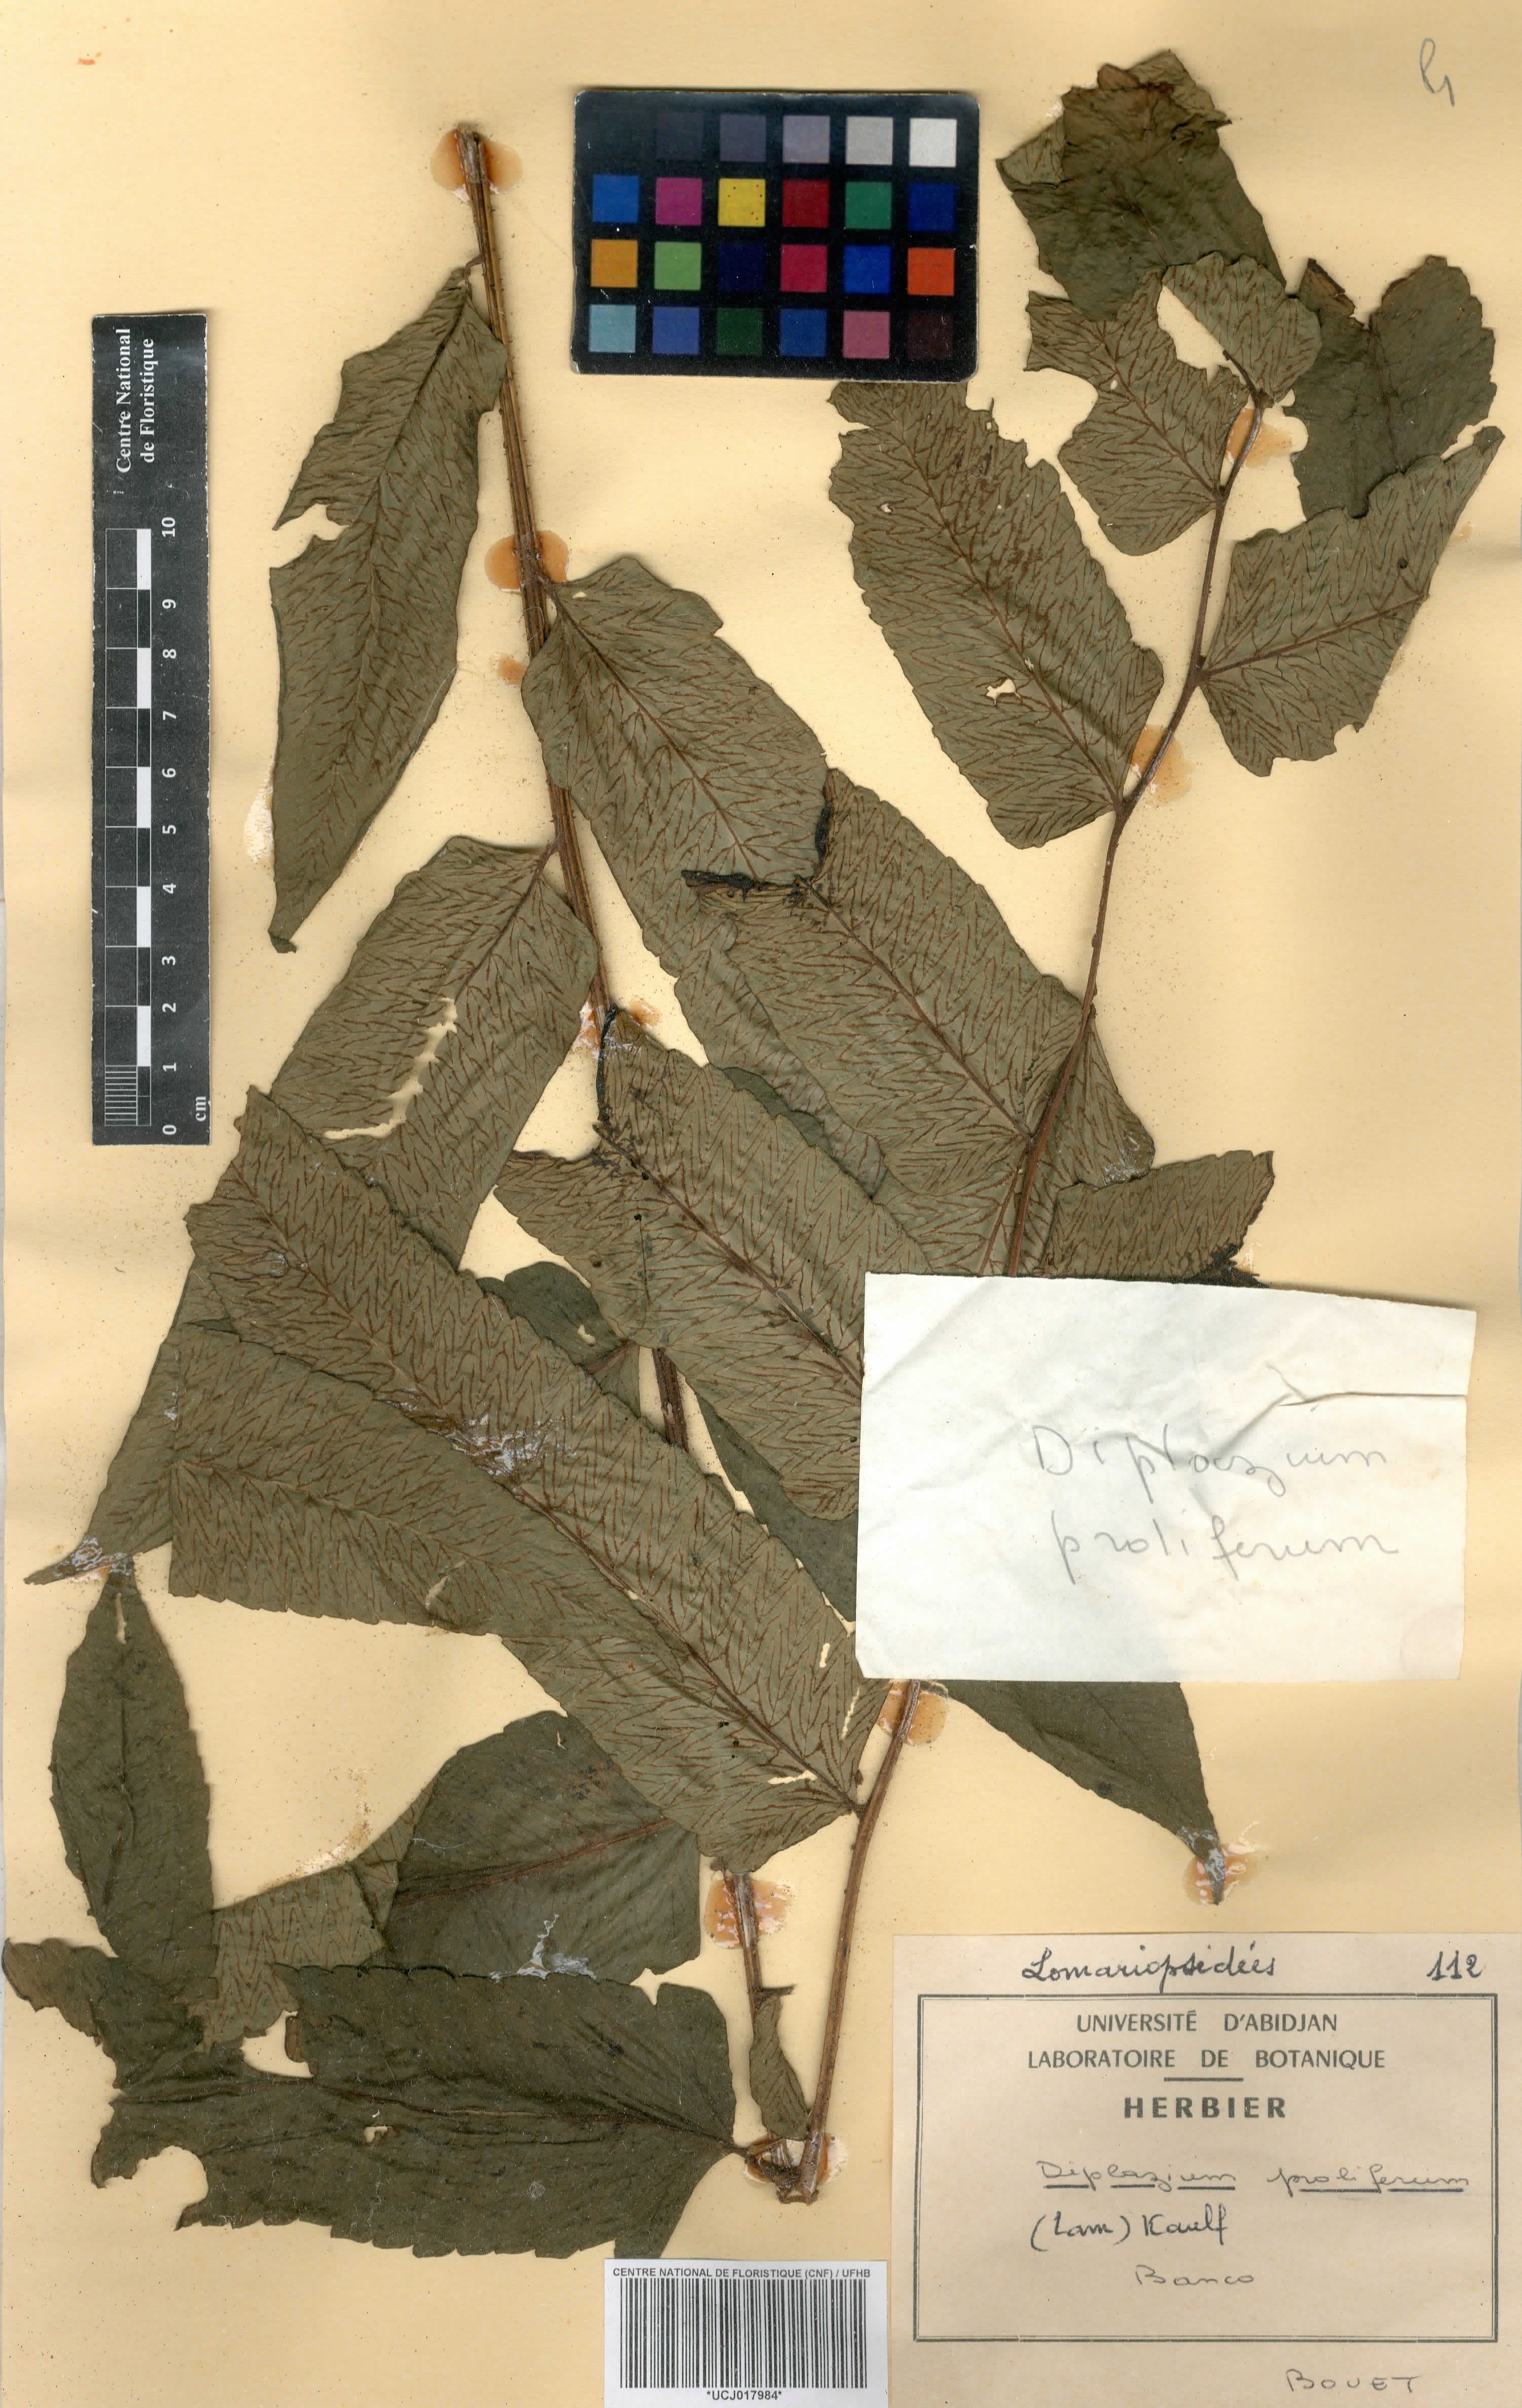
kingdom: Plantae
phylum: Tracheophyta
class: Polypodiopsida
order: Polypodiales
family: Athyriaceae
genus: Diplazium
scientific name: Diplazium proliferum
